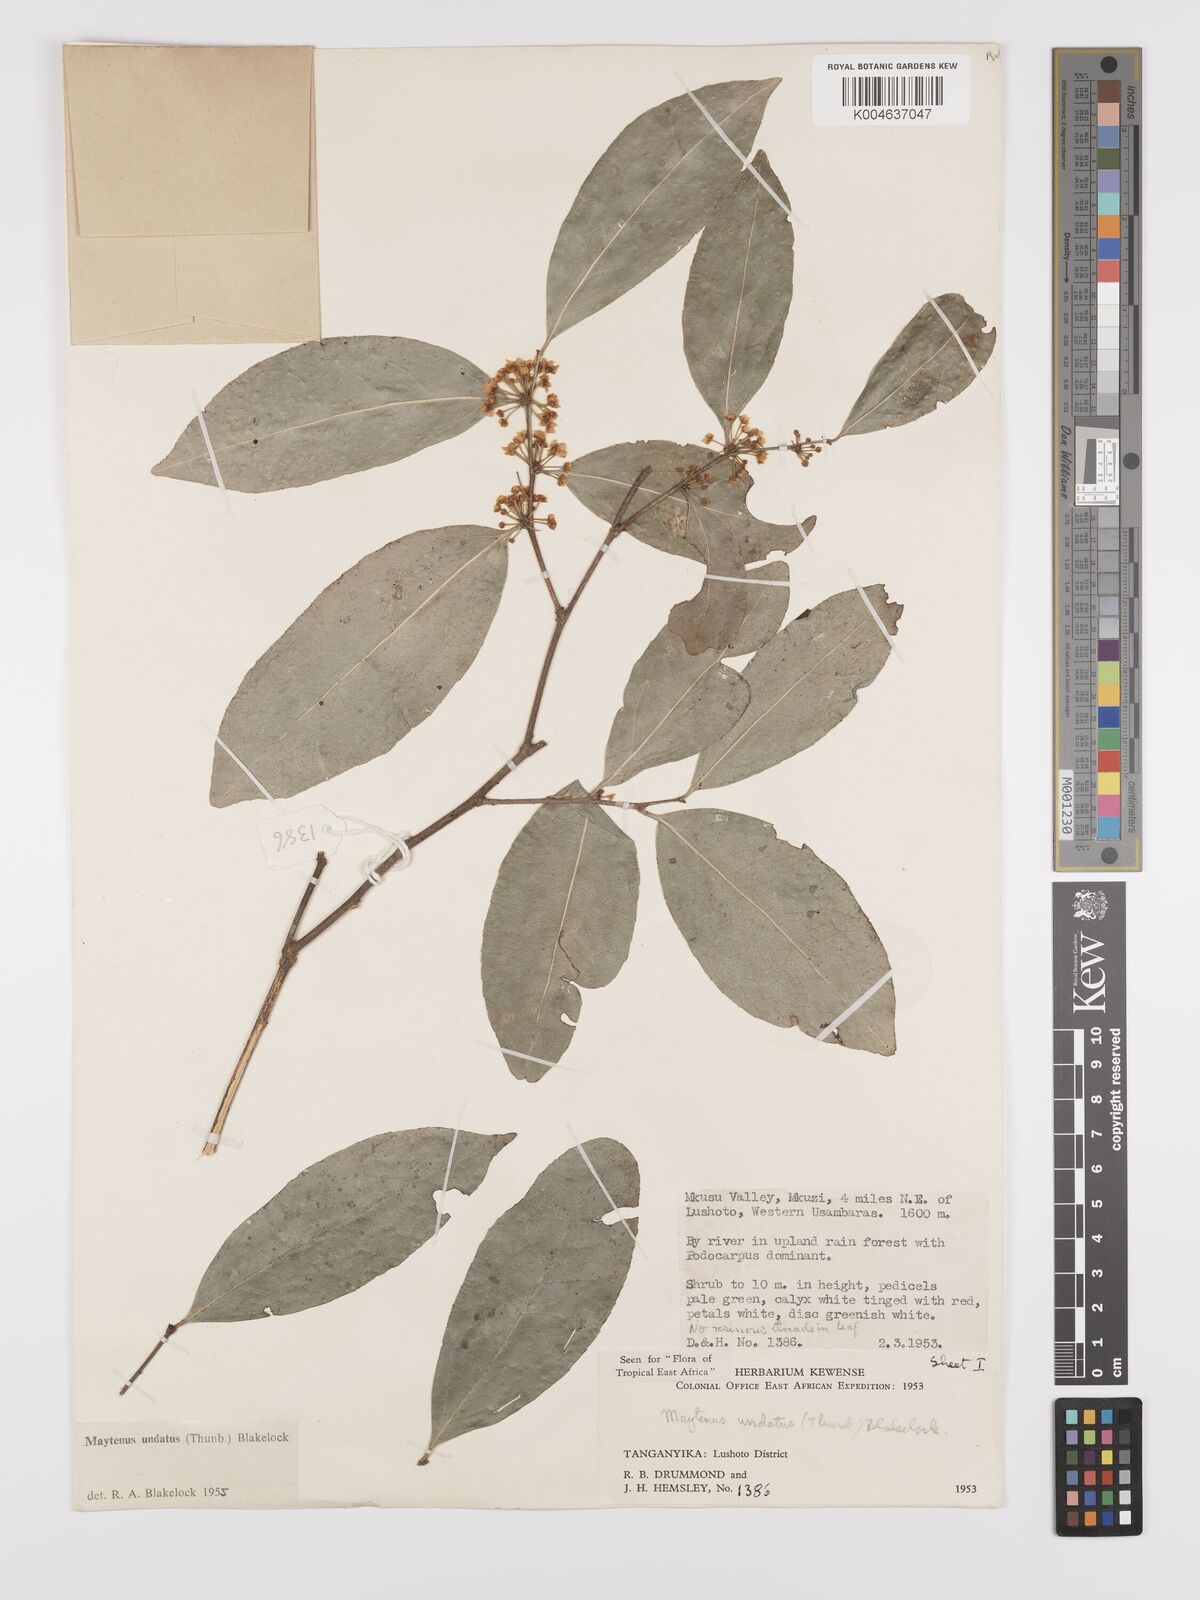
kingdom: Plantae
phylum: Tracheophyta
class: Magnoliopsida
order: Celastrales
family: Celastraceae
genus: Gymnosporia
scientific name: Gymnosporia undata
